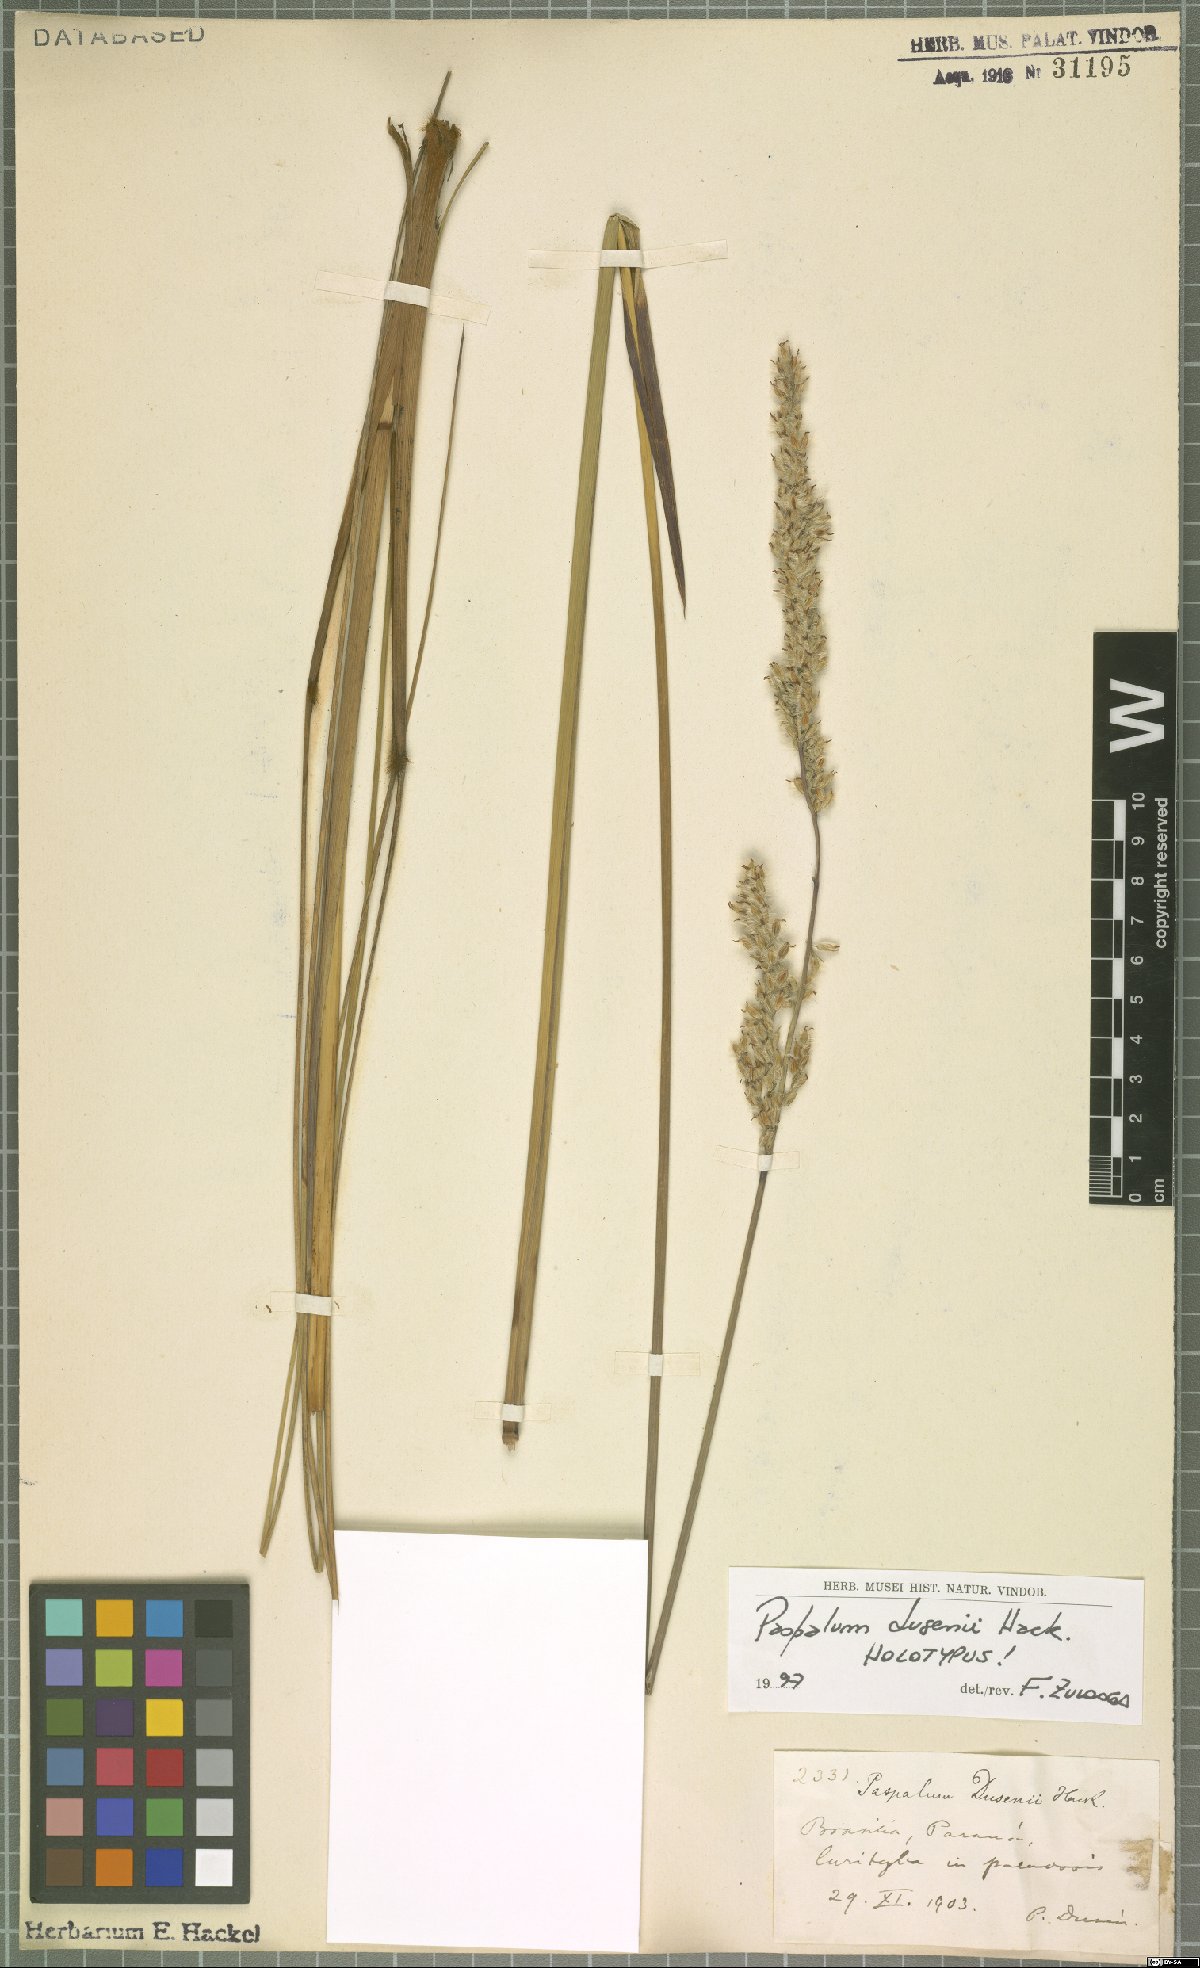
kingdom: Plantae
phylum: Tracheophyta
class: Liliopsida
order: Poales
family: Poaceae
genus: Paspalum
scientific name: Paspalum erianthoides
